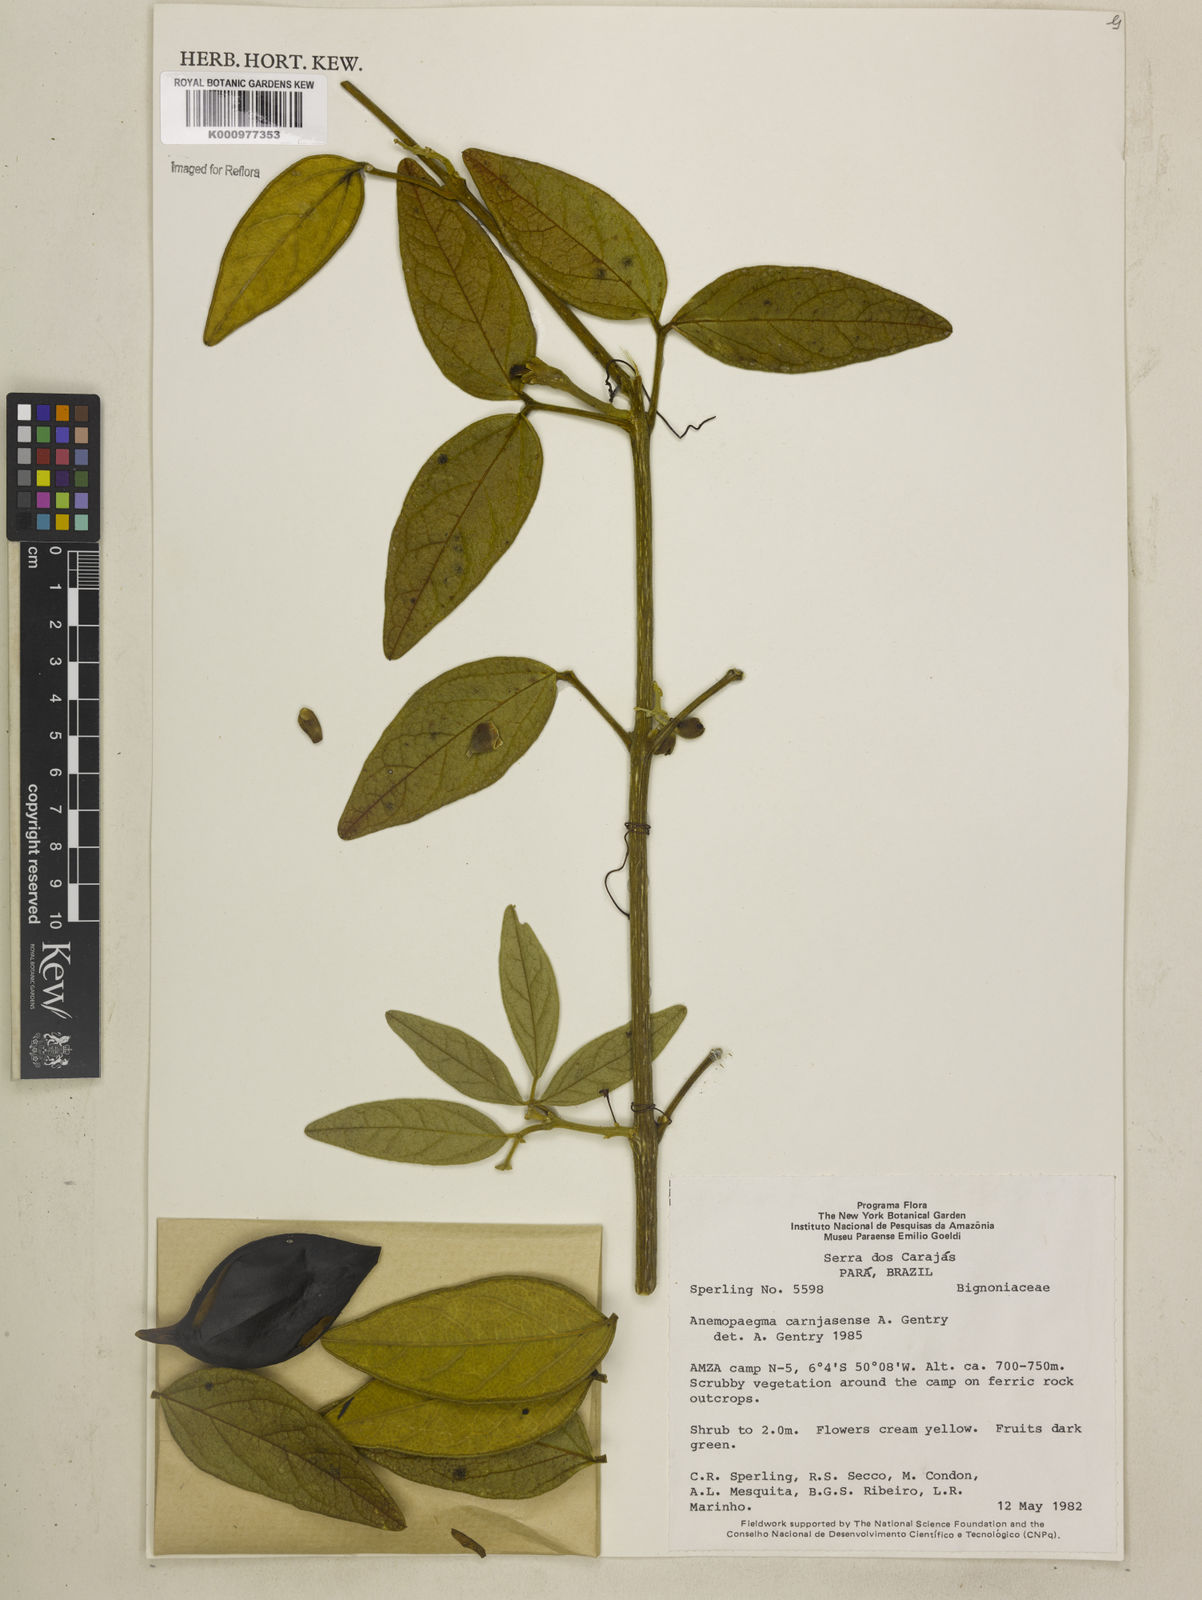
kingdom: Plantae
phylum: Tracheophyta
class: Magnoliopsida
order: Lamiales
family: Bignoniaceae
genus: Anemopaegma
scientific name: Anemopaegma
